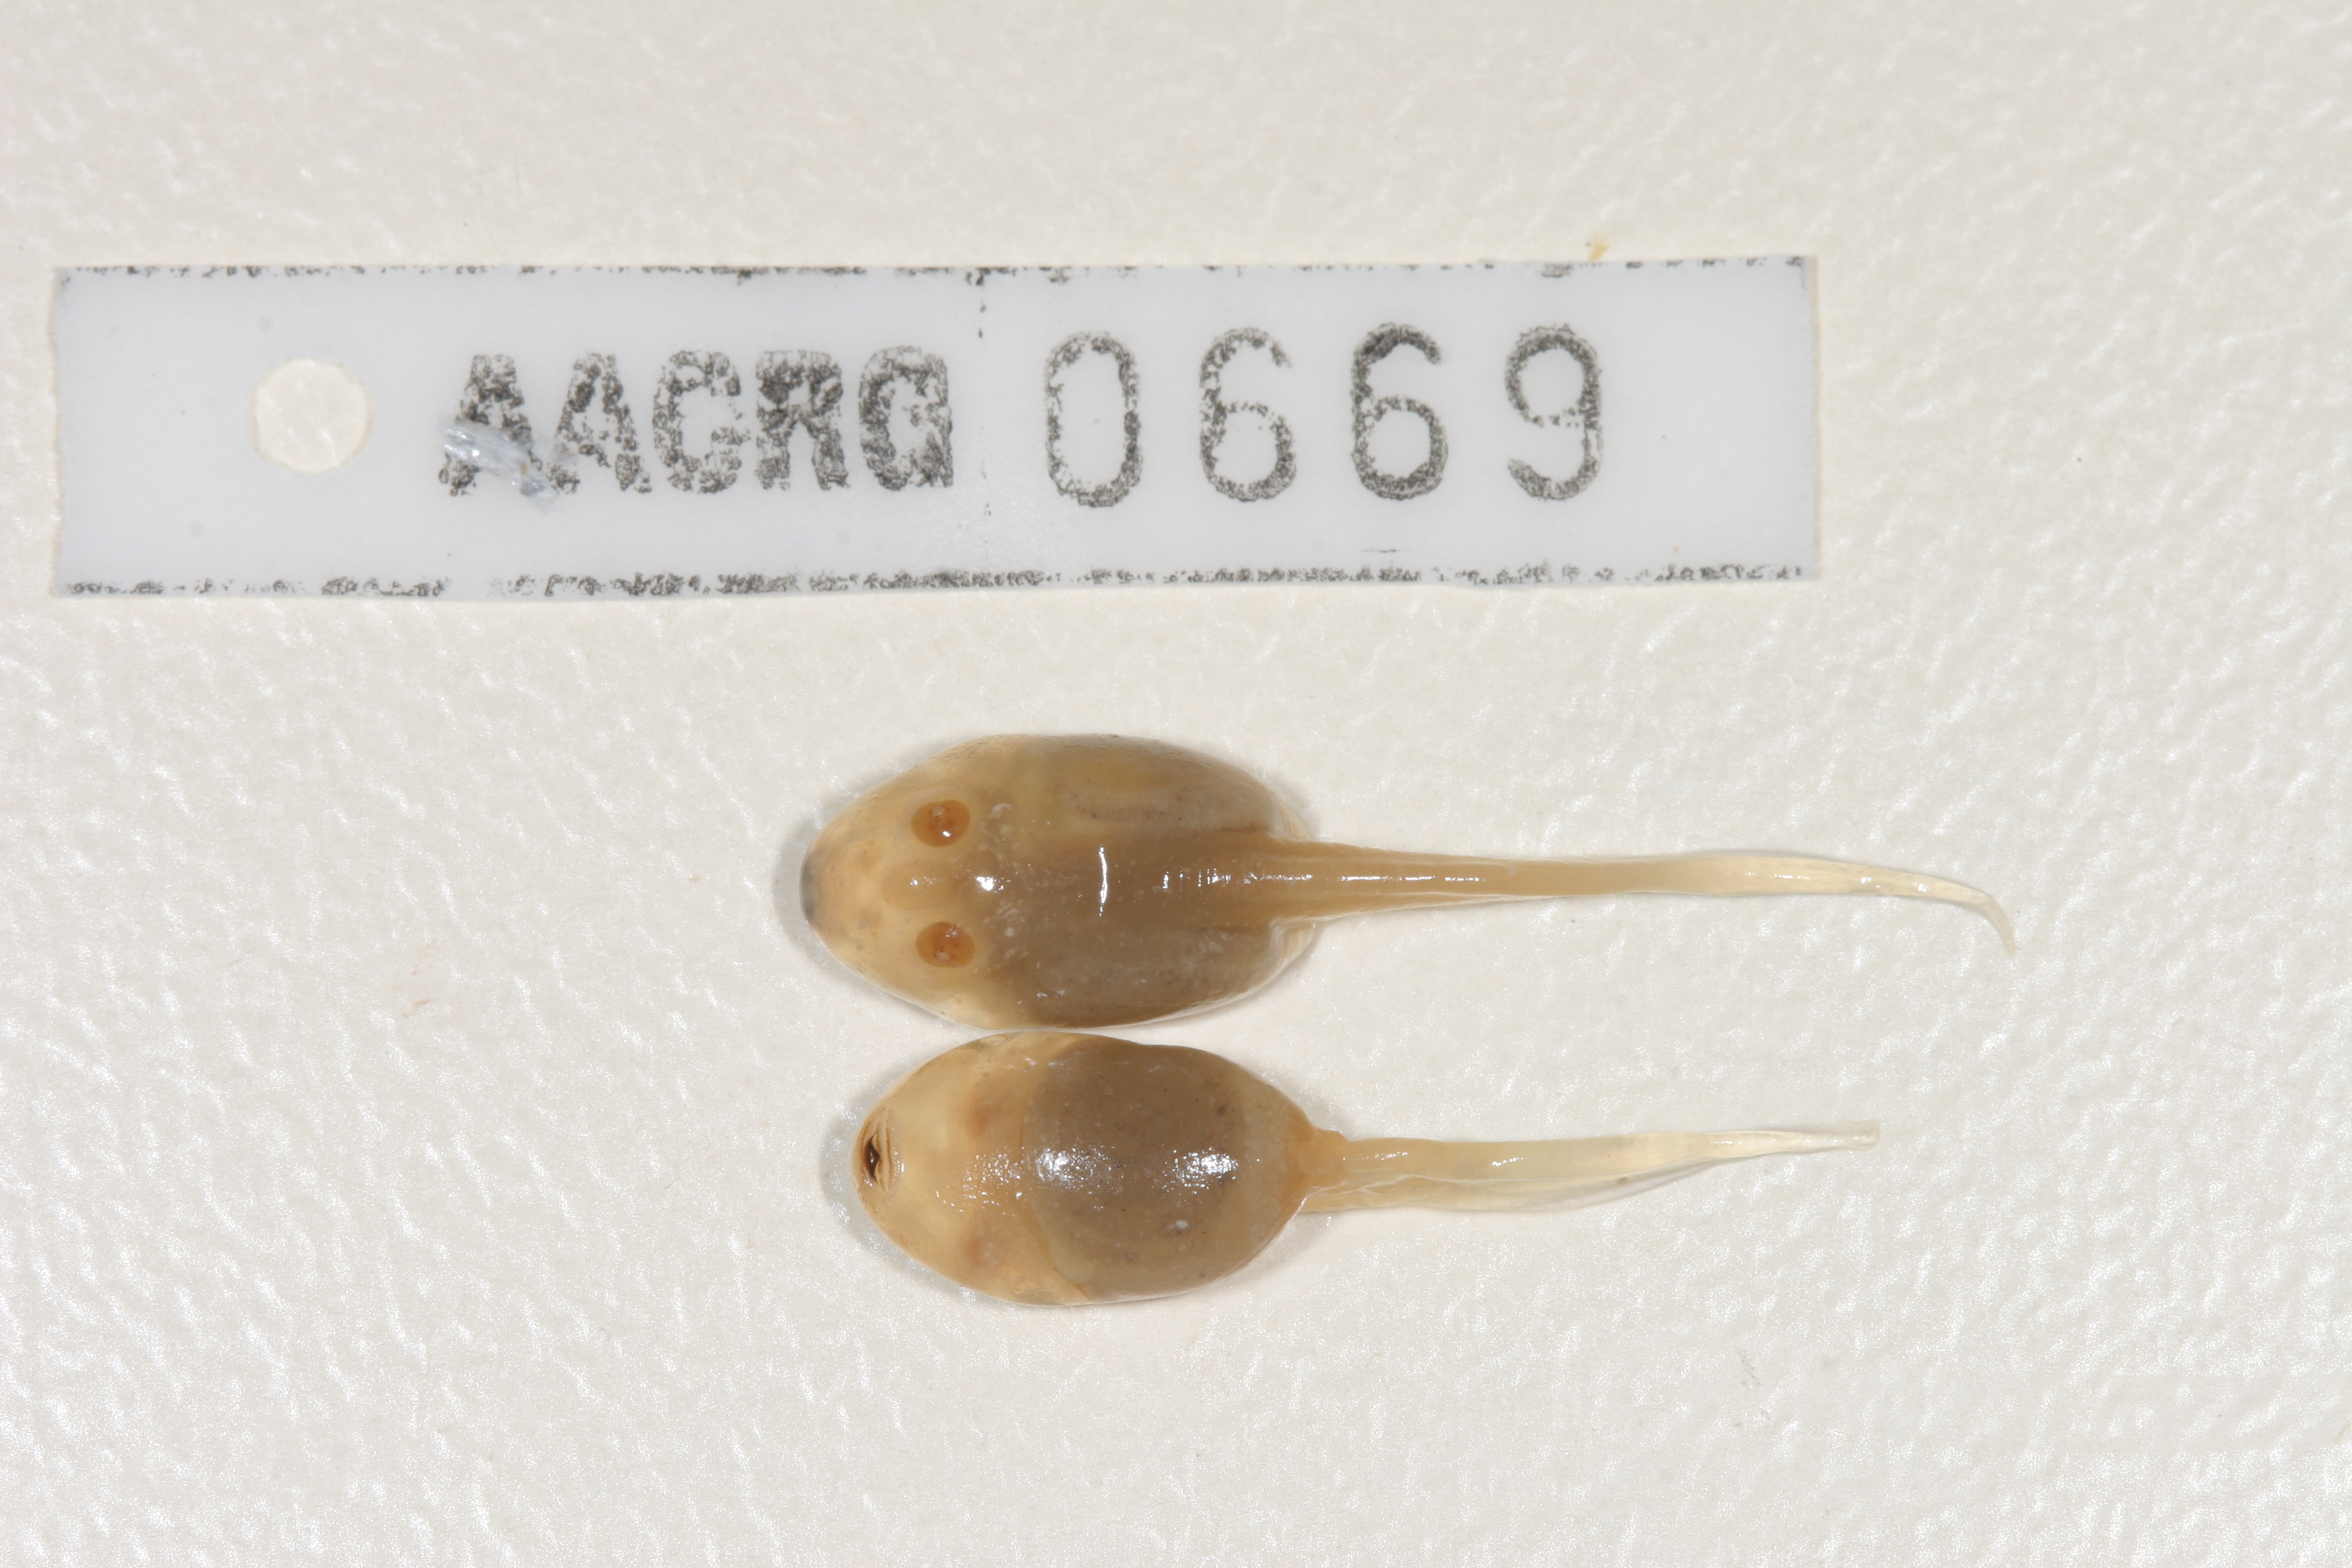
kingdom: Animalia
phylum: Chordata
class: Amphibia
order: Anura
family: Pyxicephalidae
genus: Tomopterna
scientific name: Tomopterna delalandii
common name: Delalande's burrowing bullfrog
